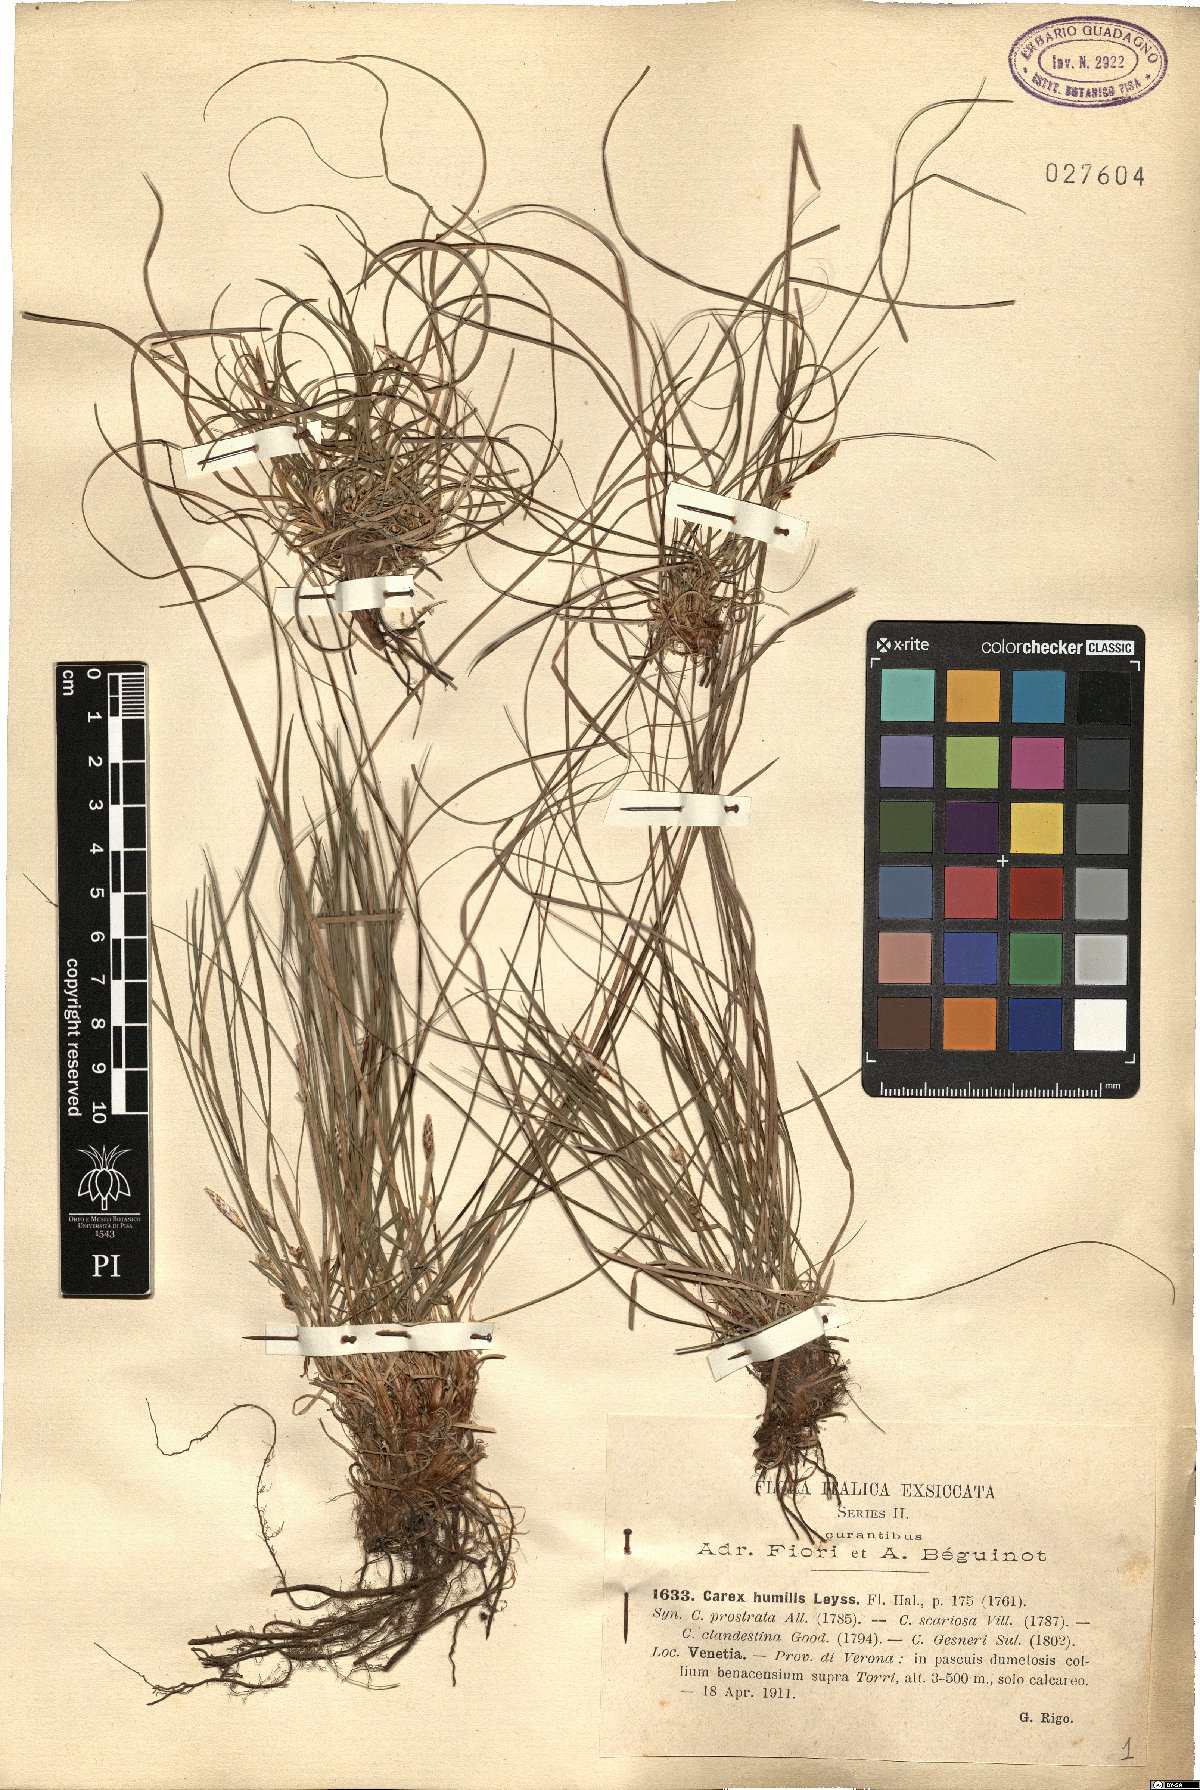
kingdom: Plantae
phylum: Tracheophyta
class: Liliopsida
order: Poales
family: Cyperaceae
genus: Carex
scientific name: Carex humilis
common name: Dwarf sedge
